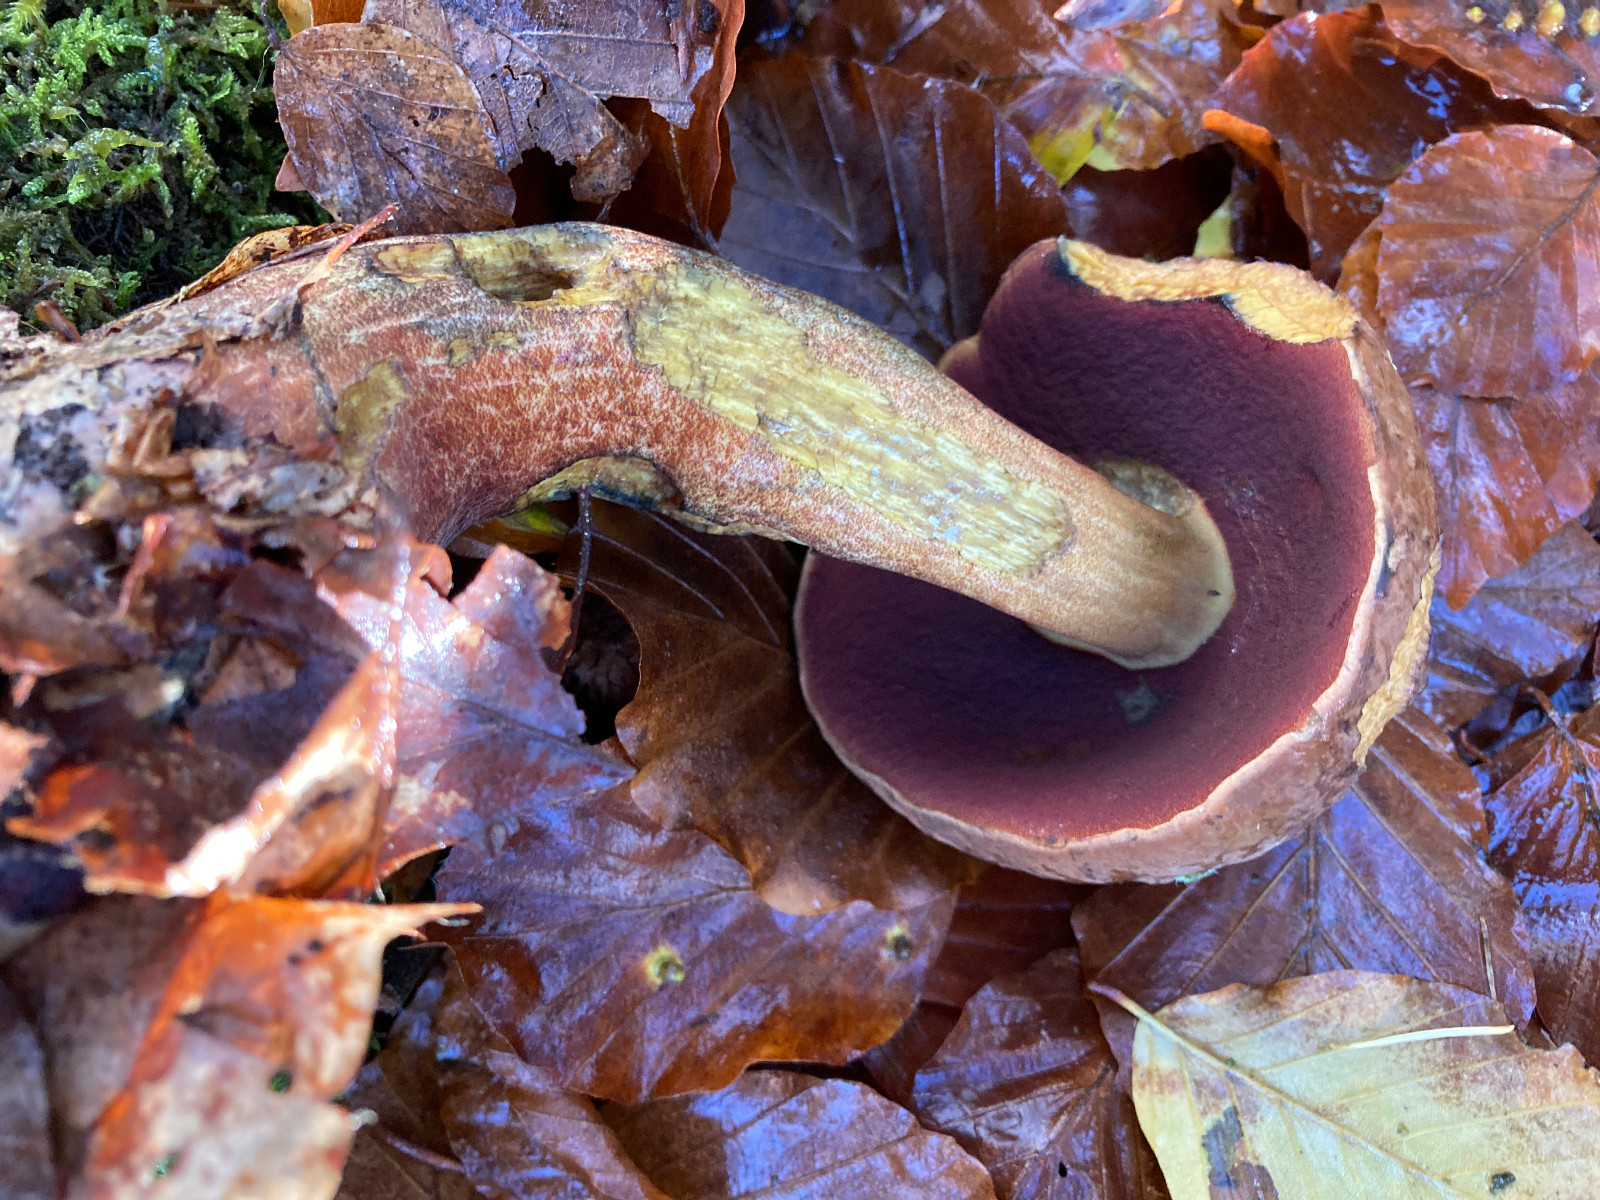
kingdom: Fungi
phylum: Basidiomycota
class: Agaricomycetes
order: Boletales
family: Boletaceae
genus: Neoboletus
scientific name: Neoboletus erythropus
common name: punktstokket indigorørhat
